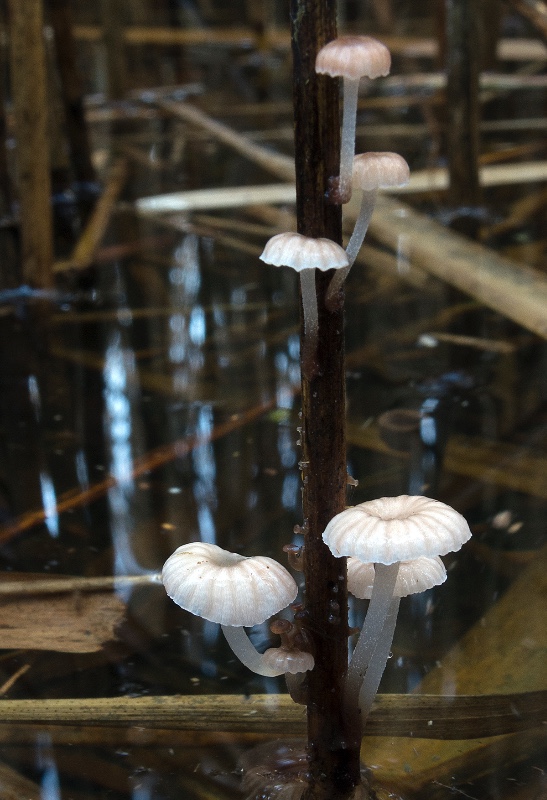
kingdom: Fungi
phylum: Basidiomycota
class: Agaricomycetes
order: Agaricales
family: Mycenaceae
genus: Mycena
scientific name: Mycena belliae
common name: tagrørs-huesvamp
